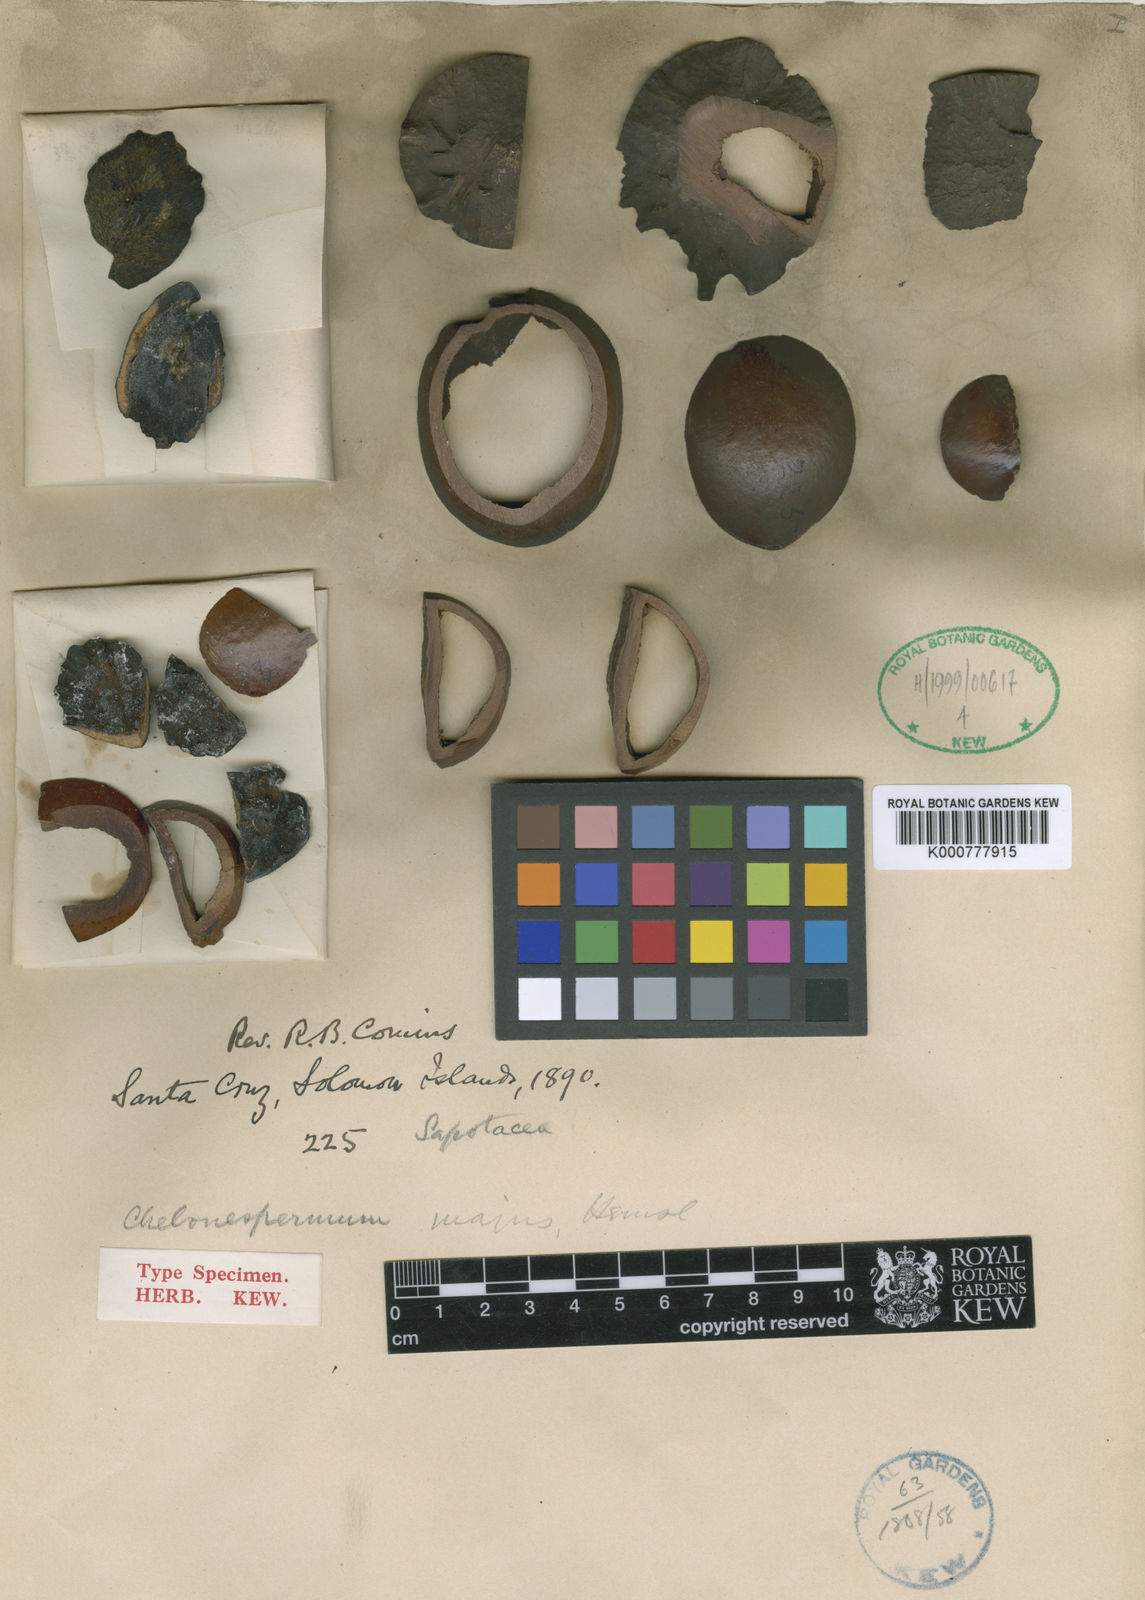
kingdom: Plantae
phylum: Tracheophyta
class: Magnoliopsida
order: Ericales
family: Sapotaceae
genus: Burckella
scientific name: Burckella
